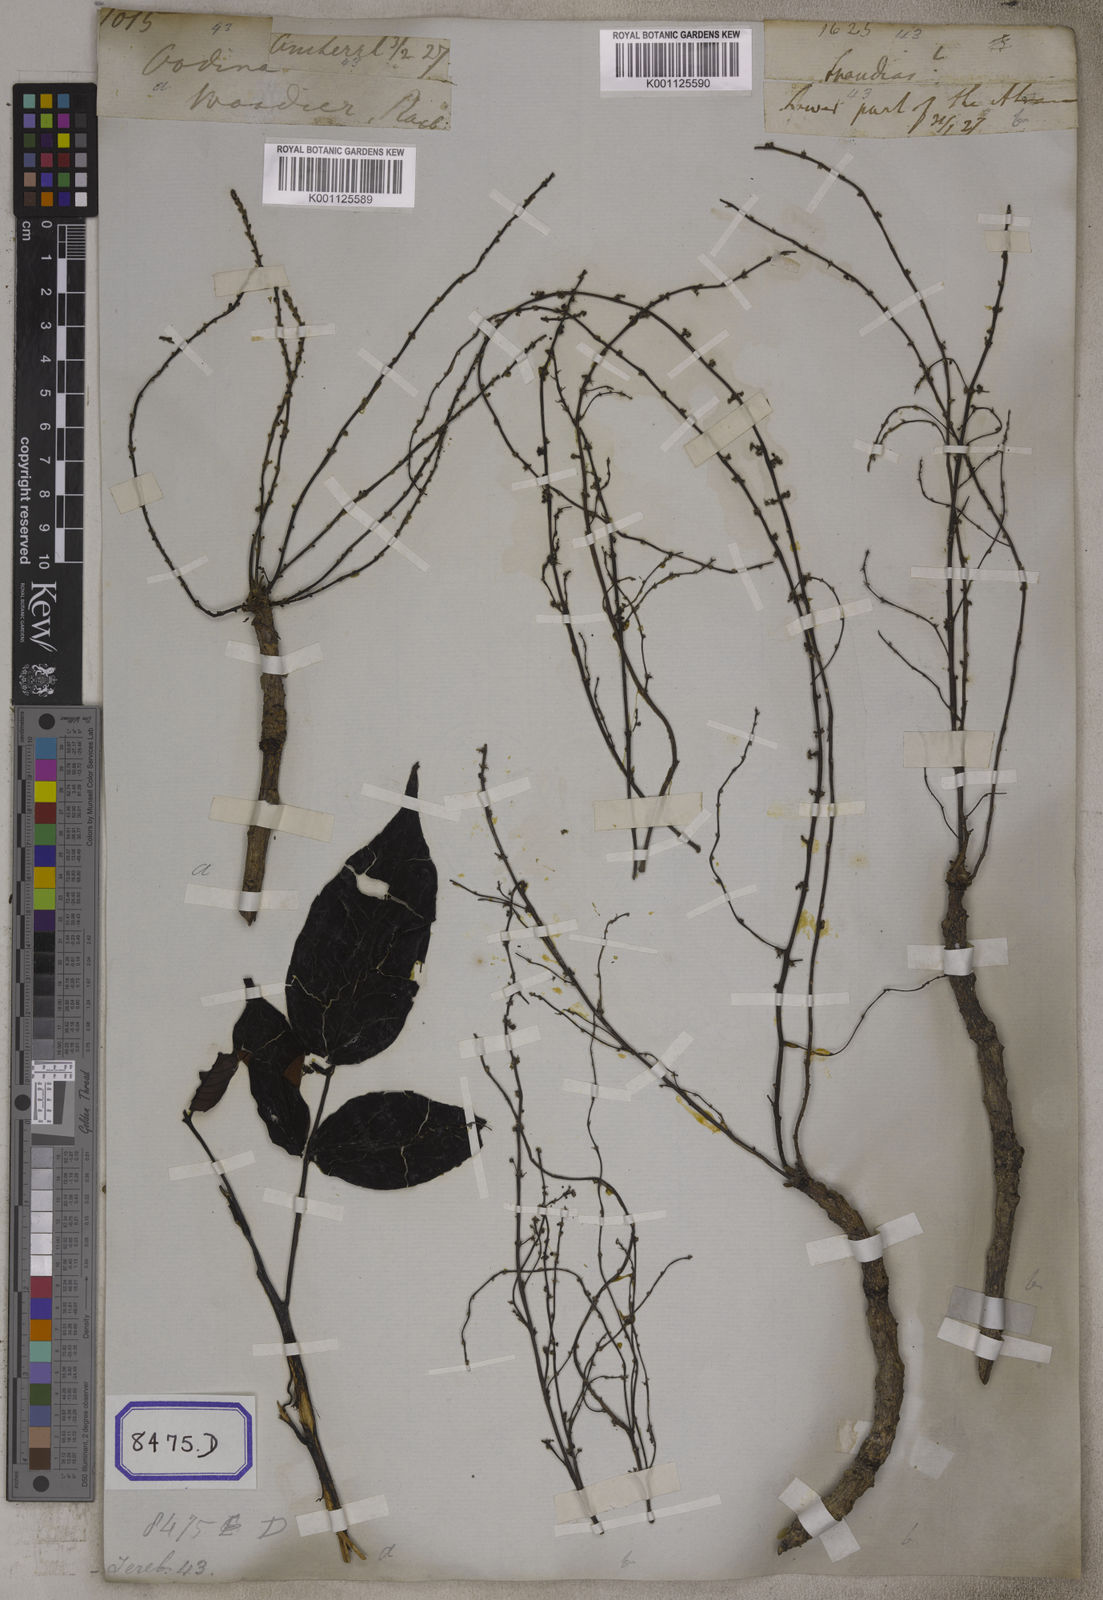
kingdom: Plantae
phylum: Tracheophyta
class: Magnoliopsida
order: Sapindales
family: Anacardiaceae
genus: Lannea
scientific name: Lannea coromandelica
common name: Indian ash tree
